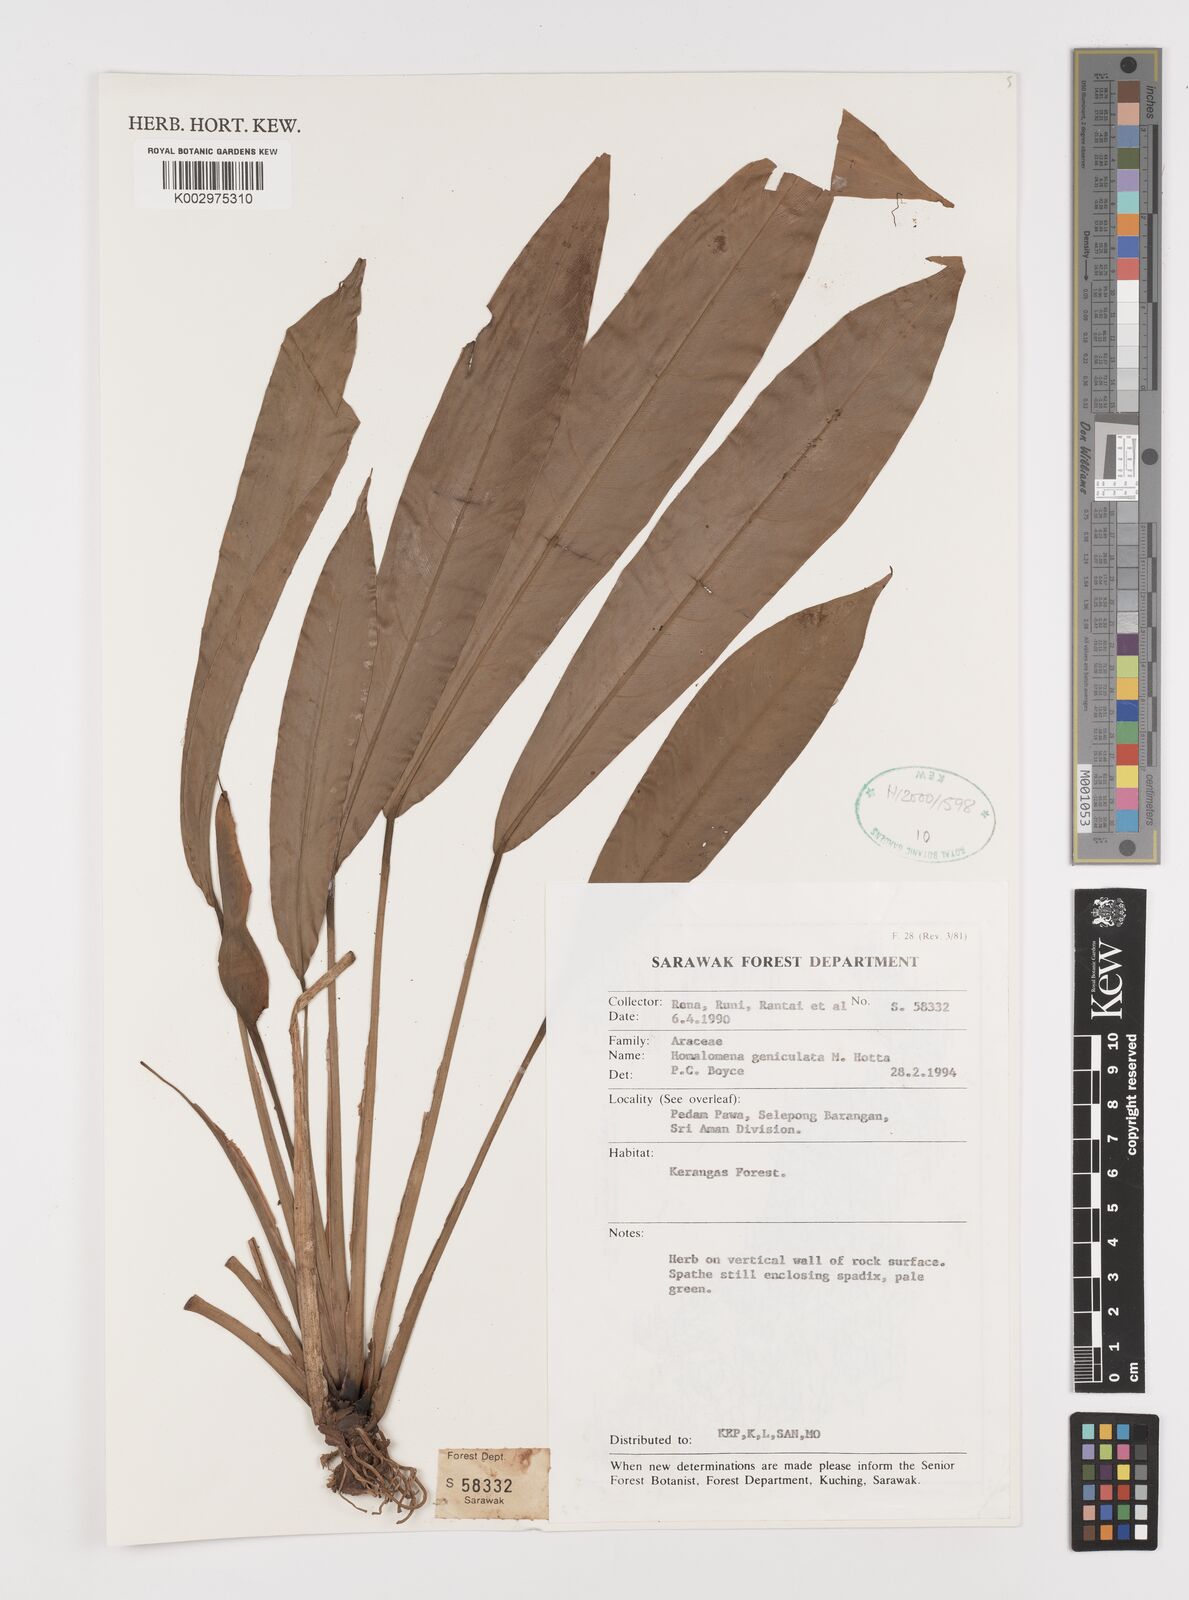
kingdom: Plantae
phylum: Tracheophyta
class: Liliopsida
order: Alismatales
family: Araceae
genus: Homalomena
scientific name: Homalomena punctulata
